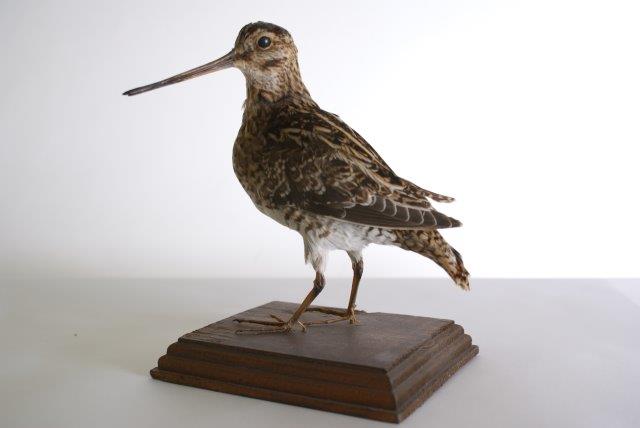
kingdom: Animalia
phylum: Chordata
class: Aves
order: Charadriiformes
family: Scolopacidae
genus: Gallinago
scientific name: Gallinago gallinago
